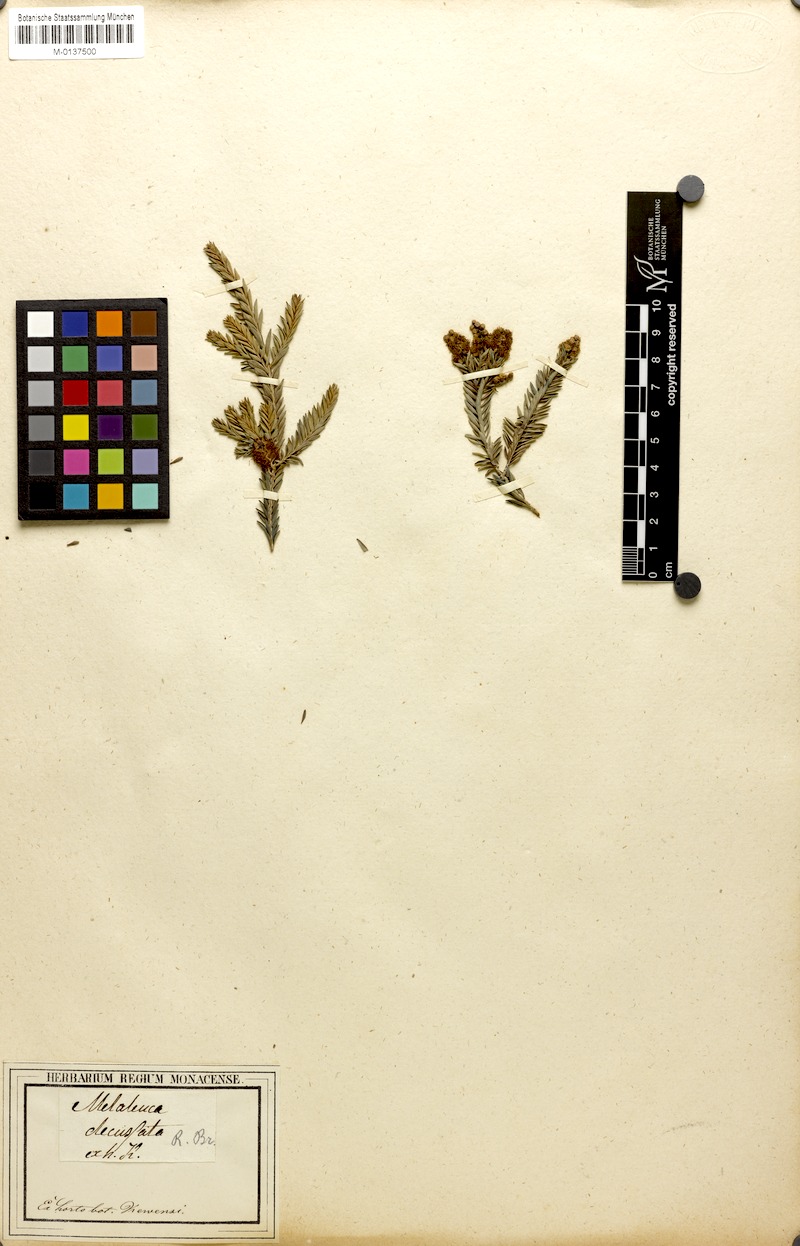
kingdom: Plantae
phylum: Tracheophyta
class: Magnoliopsida
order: Myrtales
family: Myrtaceae
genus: Melaleuca
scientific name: Melaleuca decussata
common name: Cross-leaf honey myrtle
